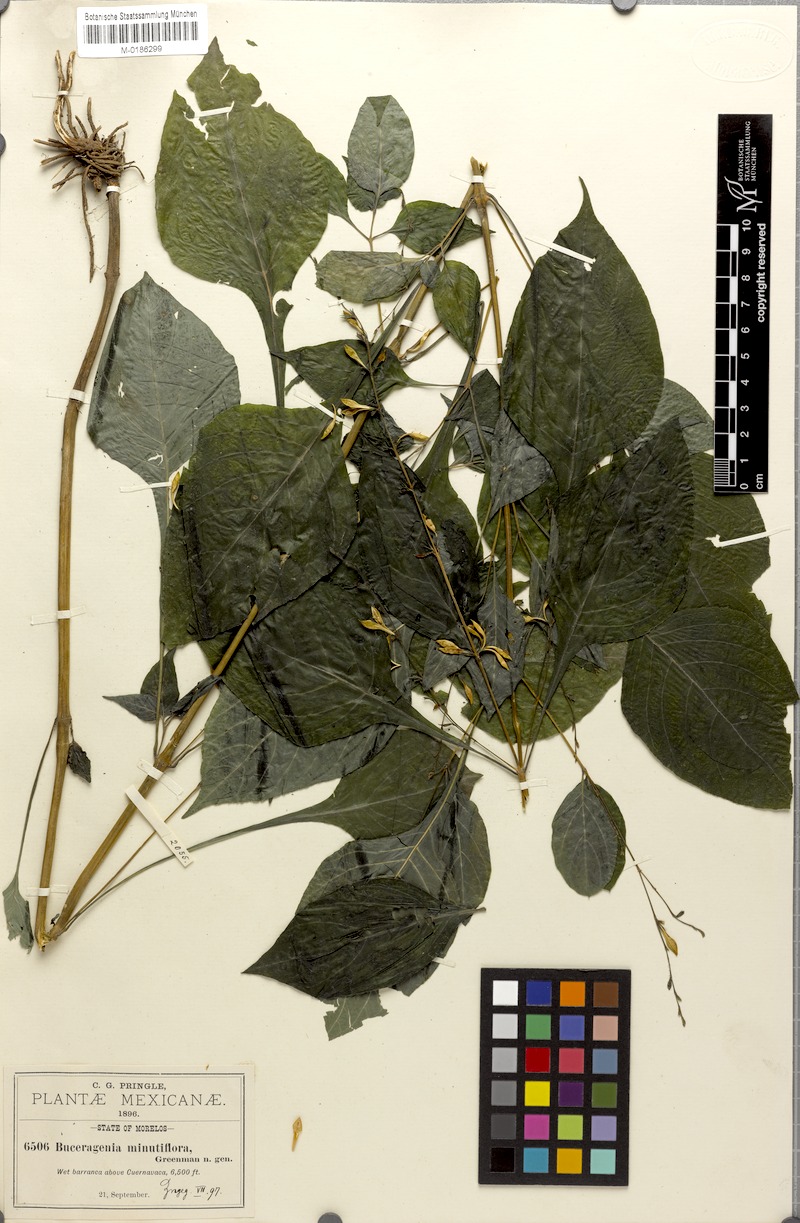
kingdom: Plantae
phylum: Tracheophyta
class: Magnoliopsida
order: Lamiales
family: Acanthaceae
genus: Pseuderanthemum
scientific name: Pseuderanthemum Buceragenia minutiflora
